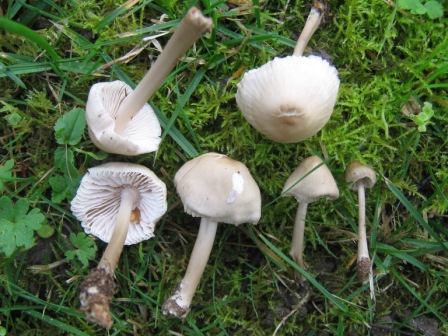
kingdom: Fungi
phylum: Basidiomycota
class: Agaricomycetes
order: Agaricales
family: Mycenaceae
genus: Mycena
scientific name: Mycena galericulata
